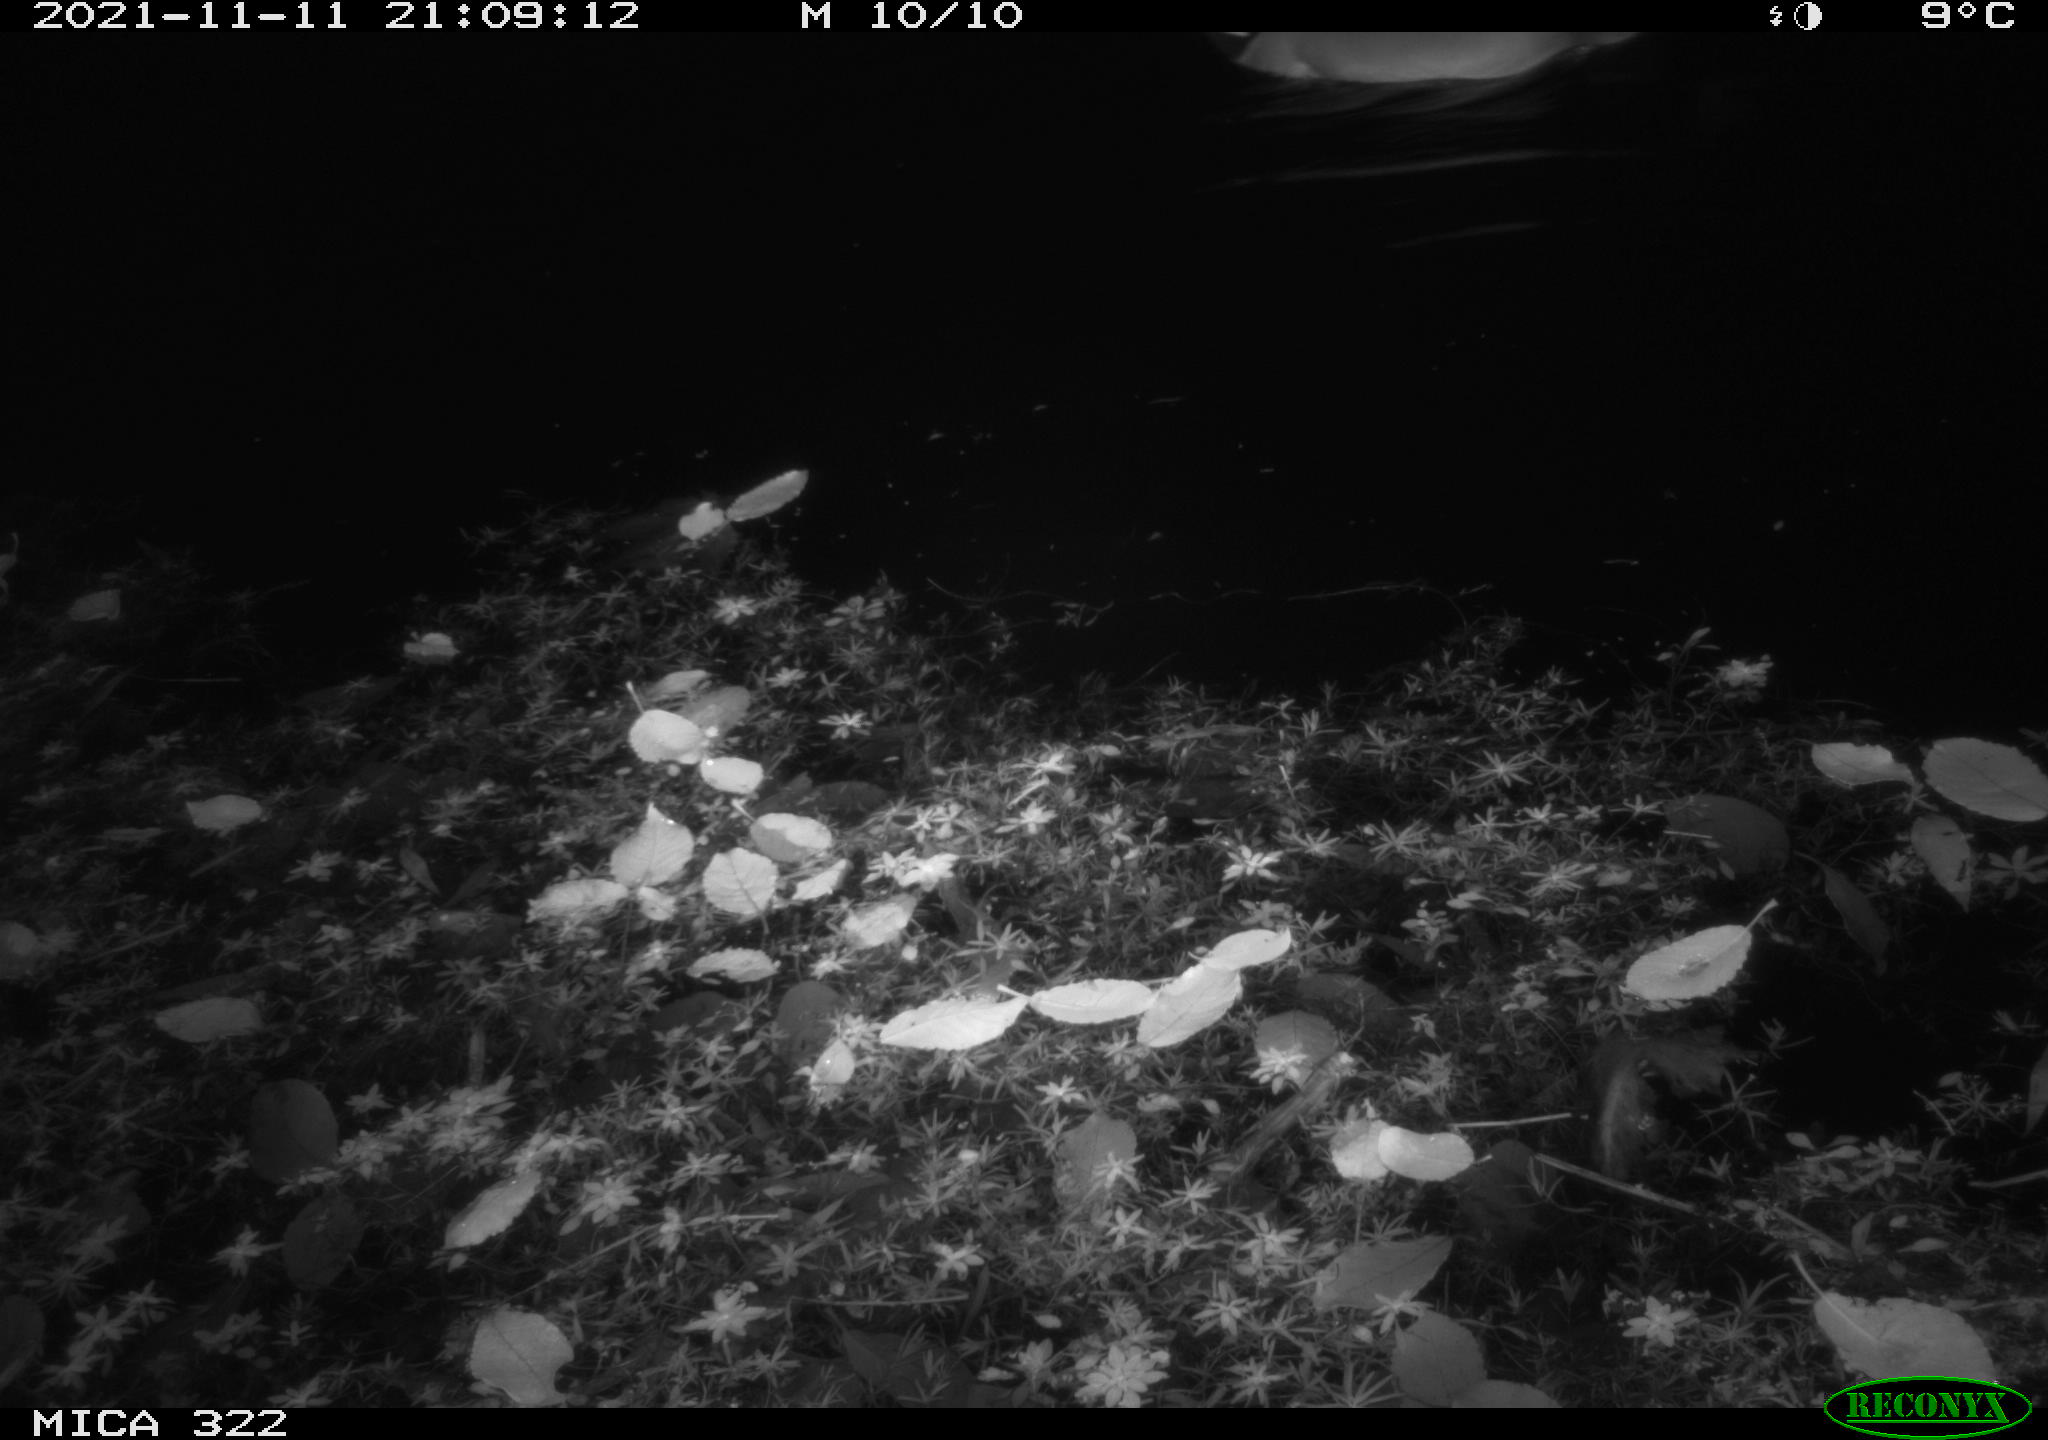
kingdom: Animalia
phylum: Chordata
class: Aves
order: Anseriformes
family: Anatidae
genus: Anas
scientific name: Anas platyrhynchos
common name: Mallard
